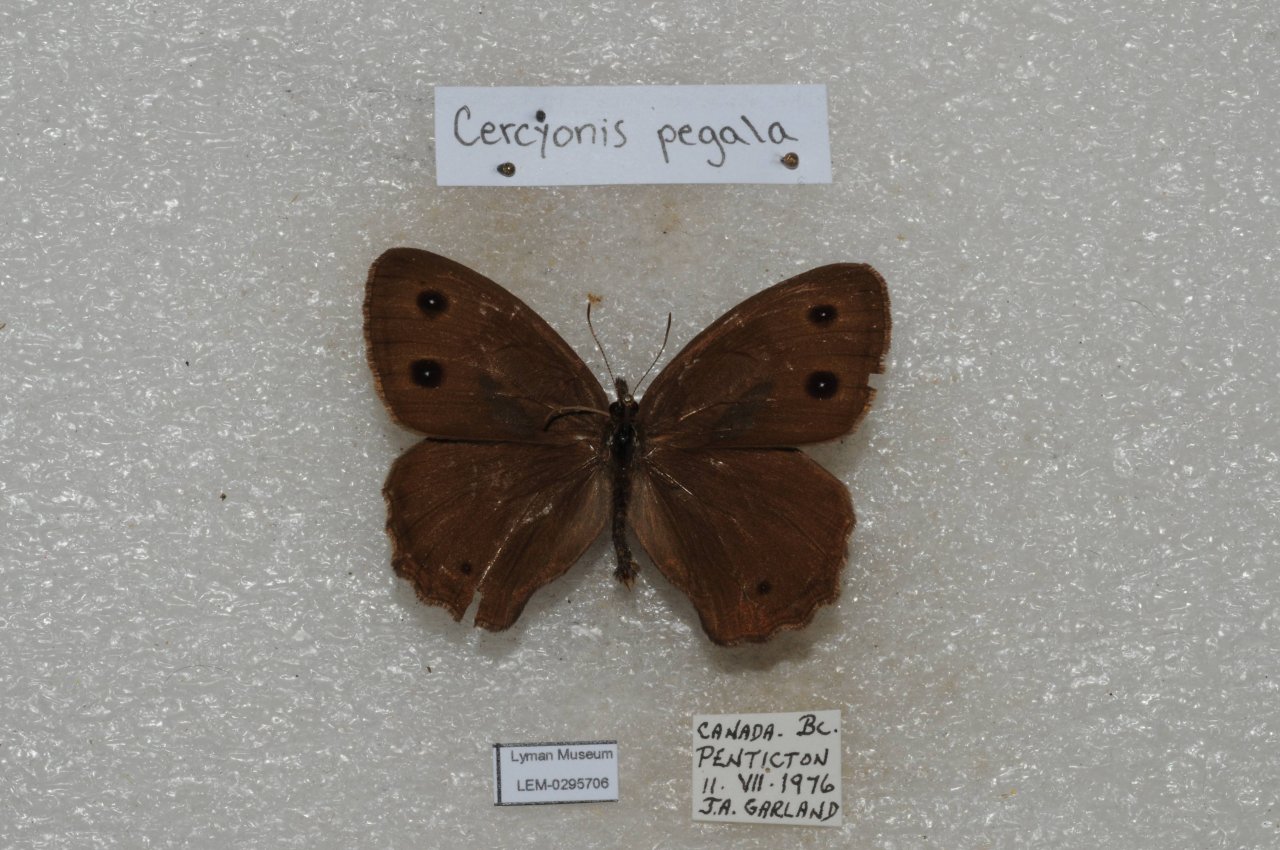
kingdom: Animalia
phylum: Arthropoda
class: Insecta
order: Lepidoptera
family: Nymphalidae
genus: Cercyonis
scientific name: Cercyonis pegala
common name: Common Wood-Nymph
